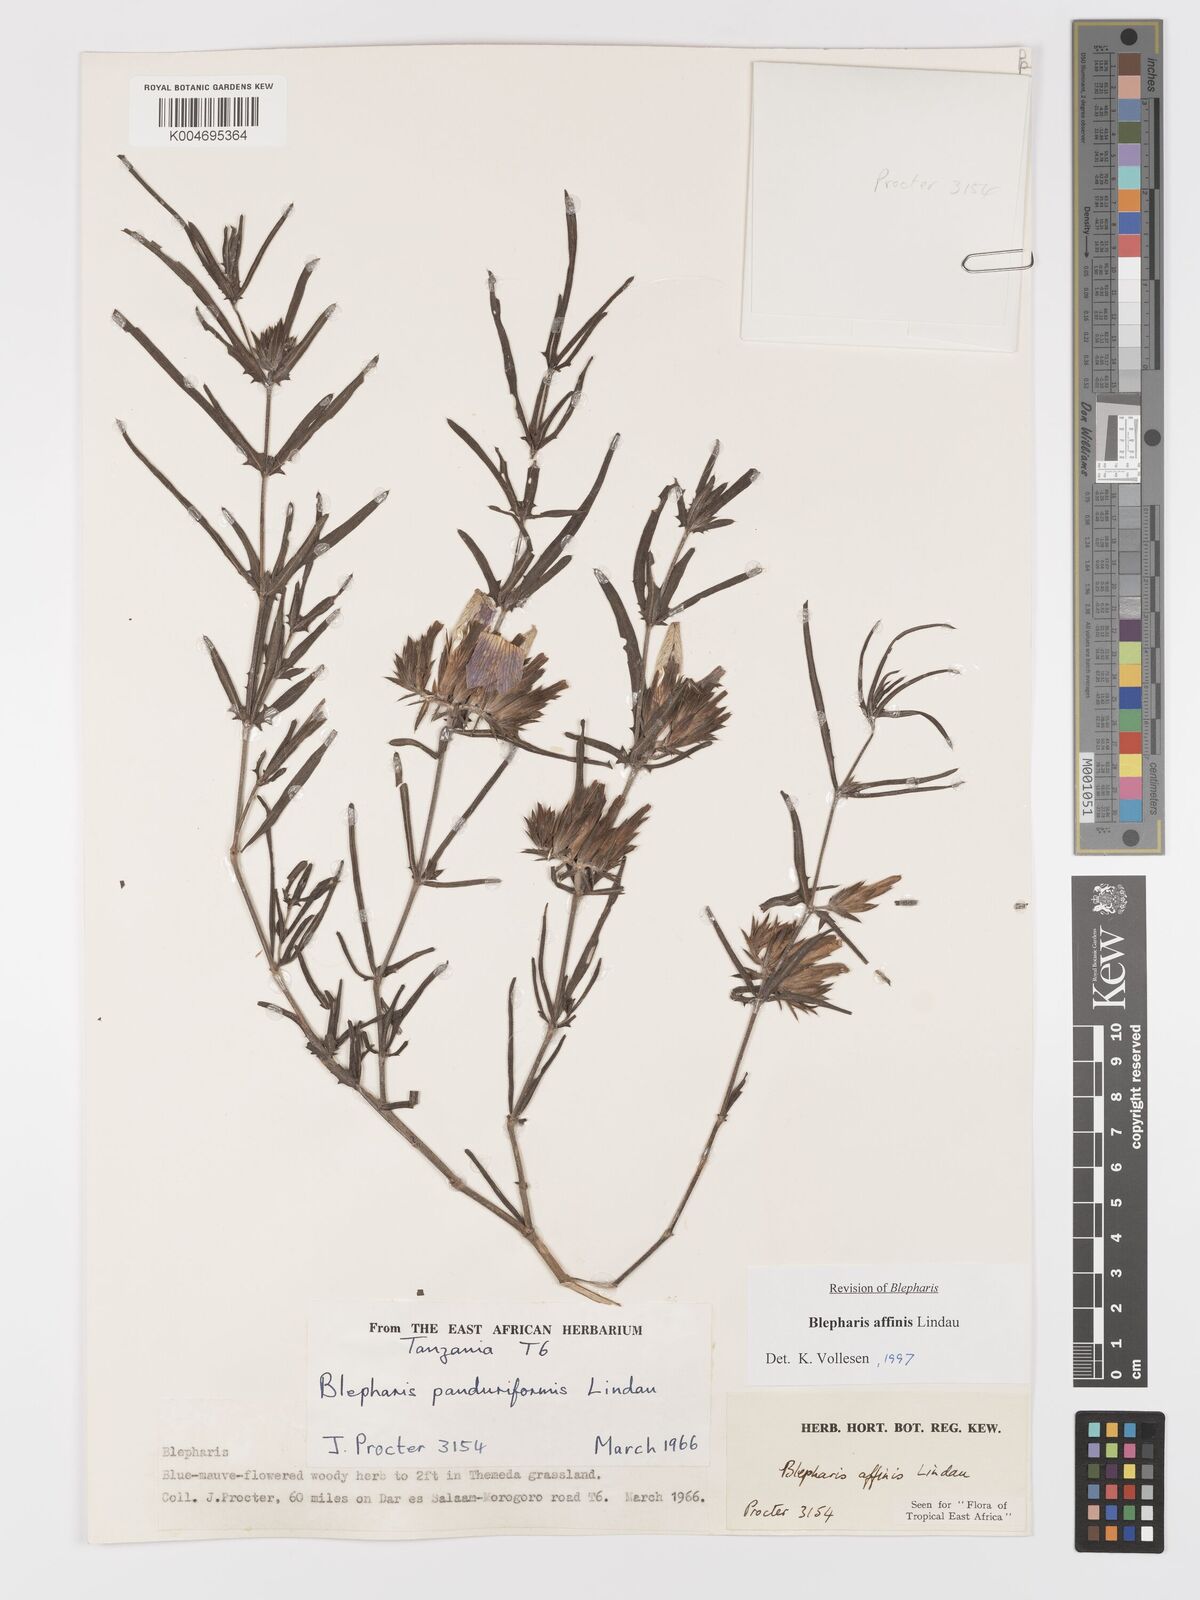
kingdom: Plantae
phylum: Tracheophyta
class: Magnoliopsida
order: Lamiales
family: Acanthaceae
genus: Blepharis
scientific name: Blepharis affinis
